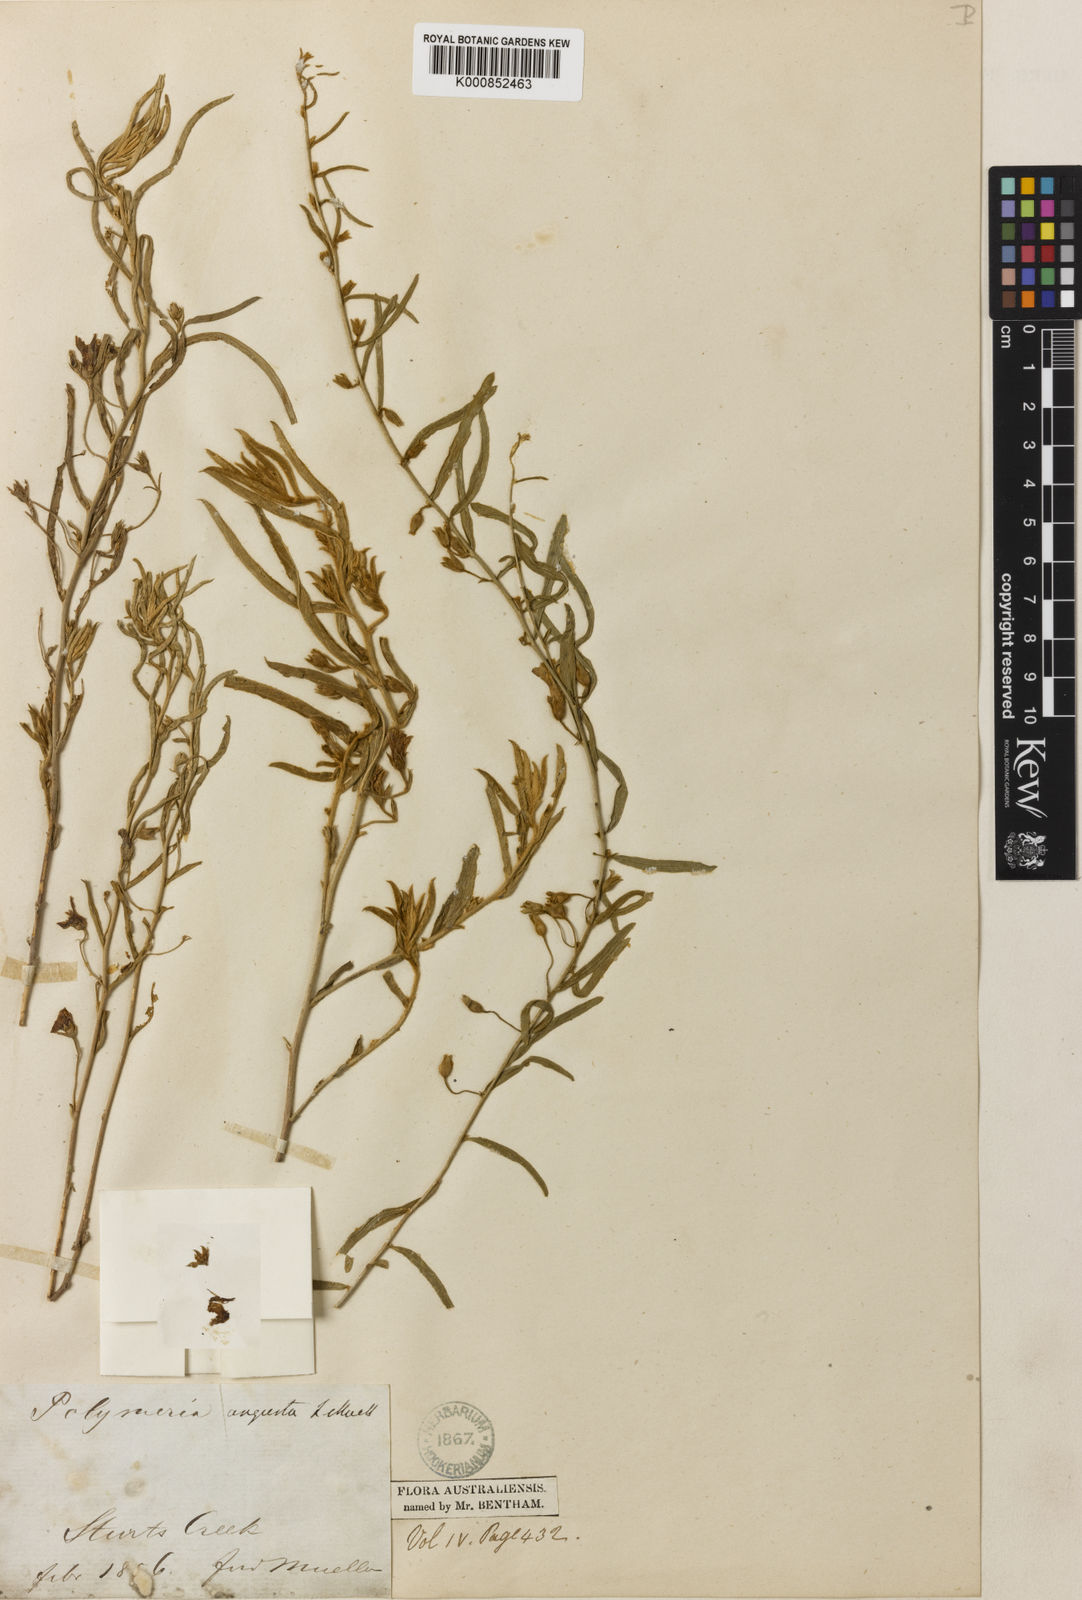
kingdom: Plantae
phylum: Tracheophyta
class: Magnoliopsida
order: Solanales
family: Convolvulaceae
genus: Polymeria
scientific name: Polymeria angusta
